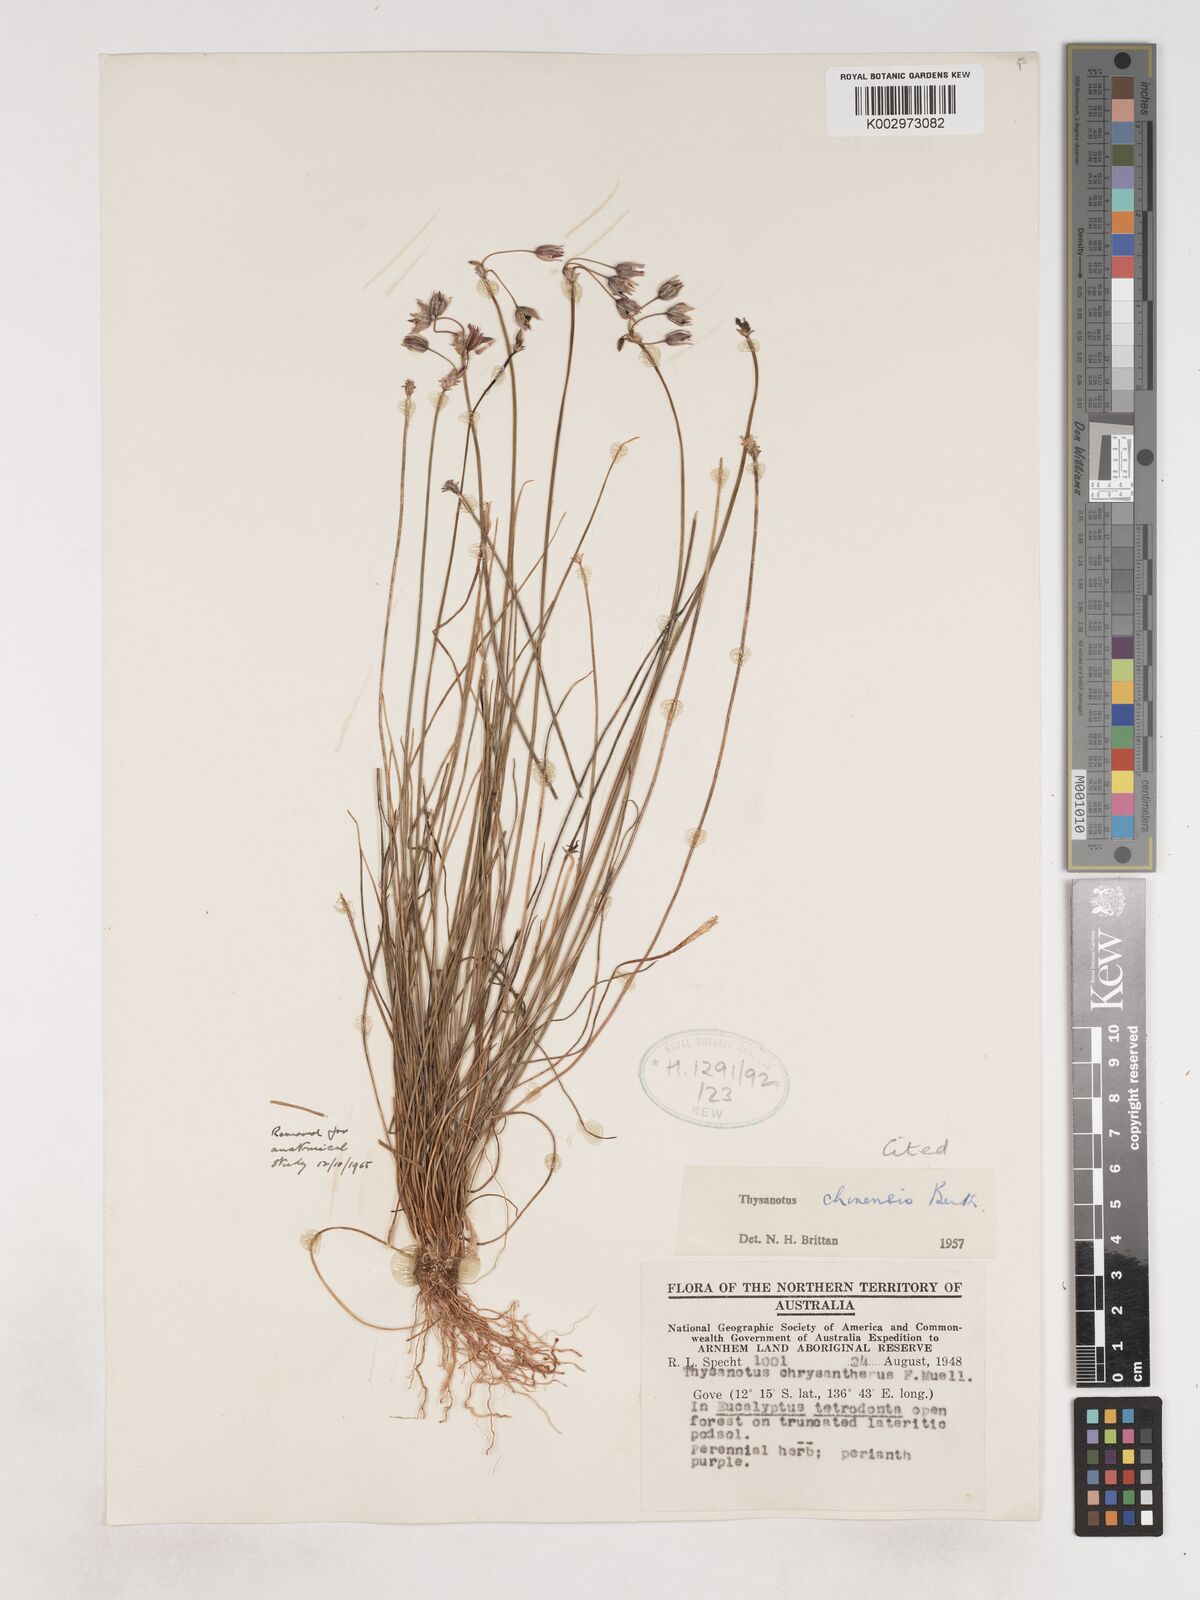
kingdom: Plantae
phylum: Tracheophyta
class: Liliopsida
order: Asparagales
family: Asparagaceae
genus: Thysanotus
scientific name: Thysanotus chinensis
